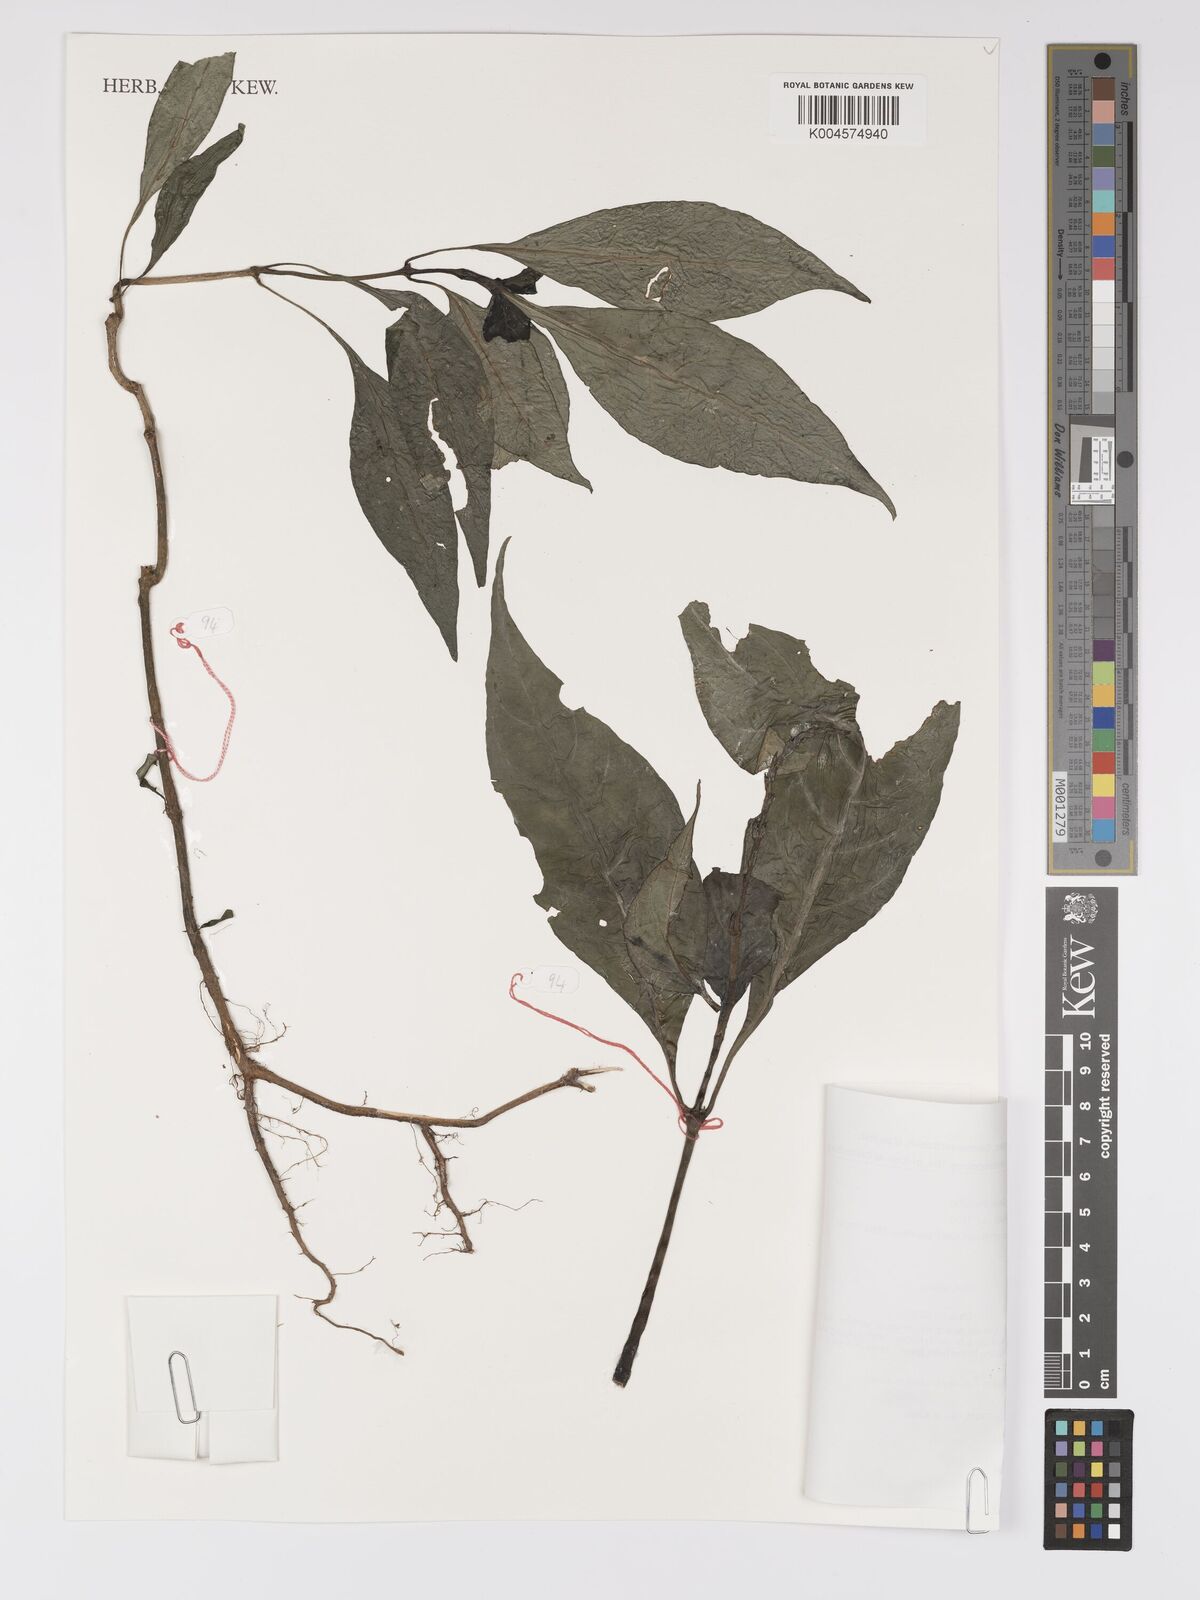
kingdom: Plantae
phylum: Tracheophyta
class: Magnoliopsida
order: Lamiales
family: Acanthaceae
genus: Pseuderanthemum
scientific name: Pseuderanthemum acuminatissimum
